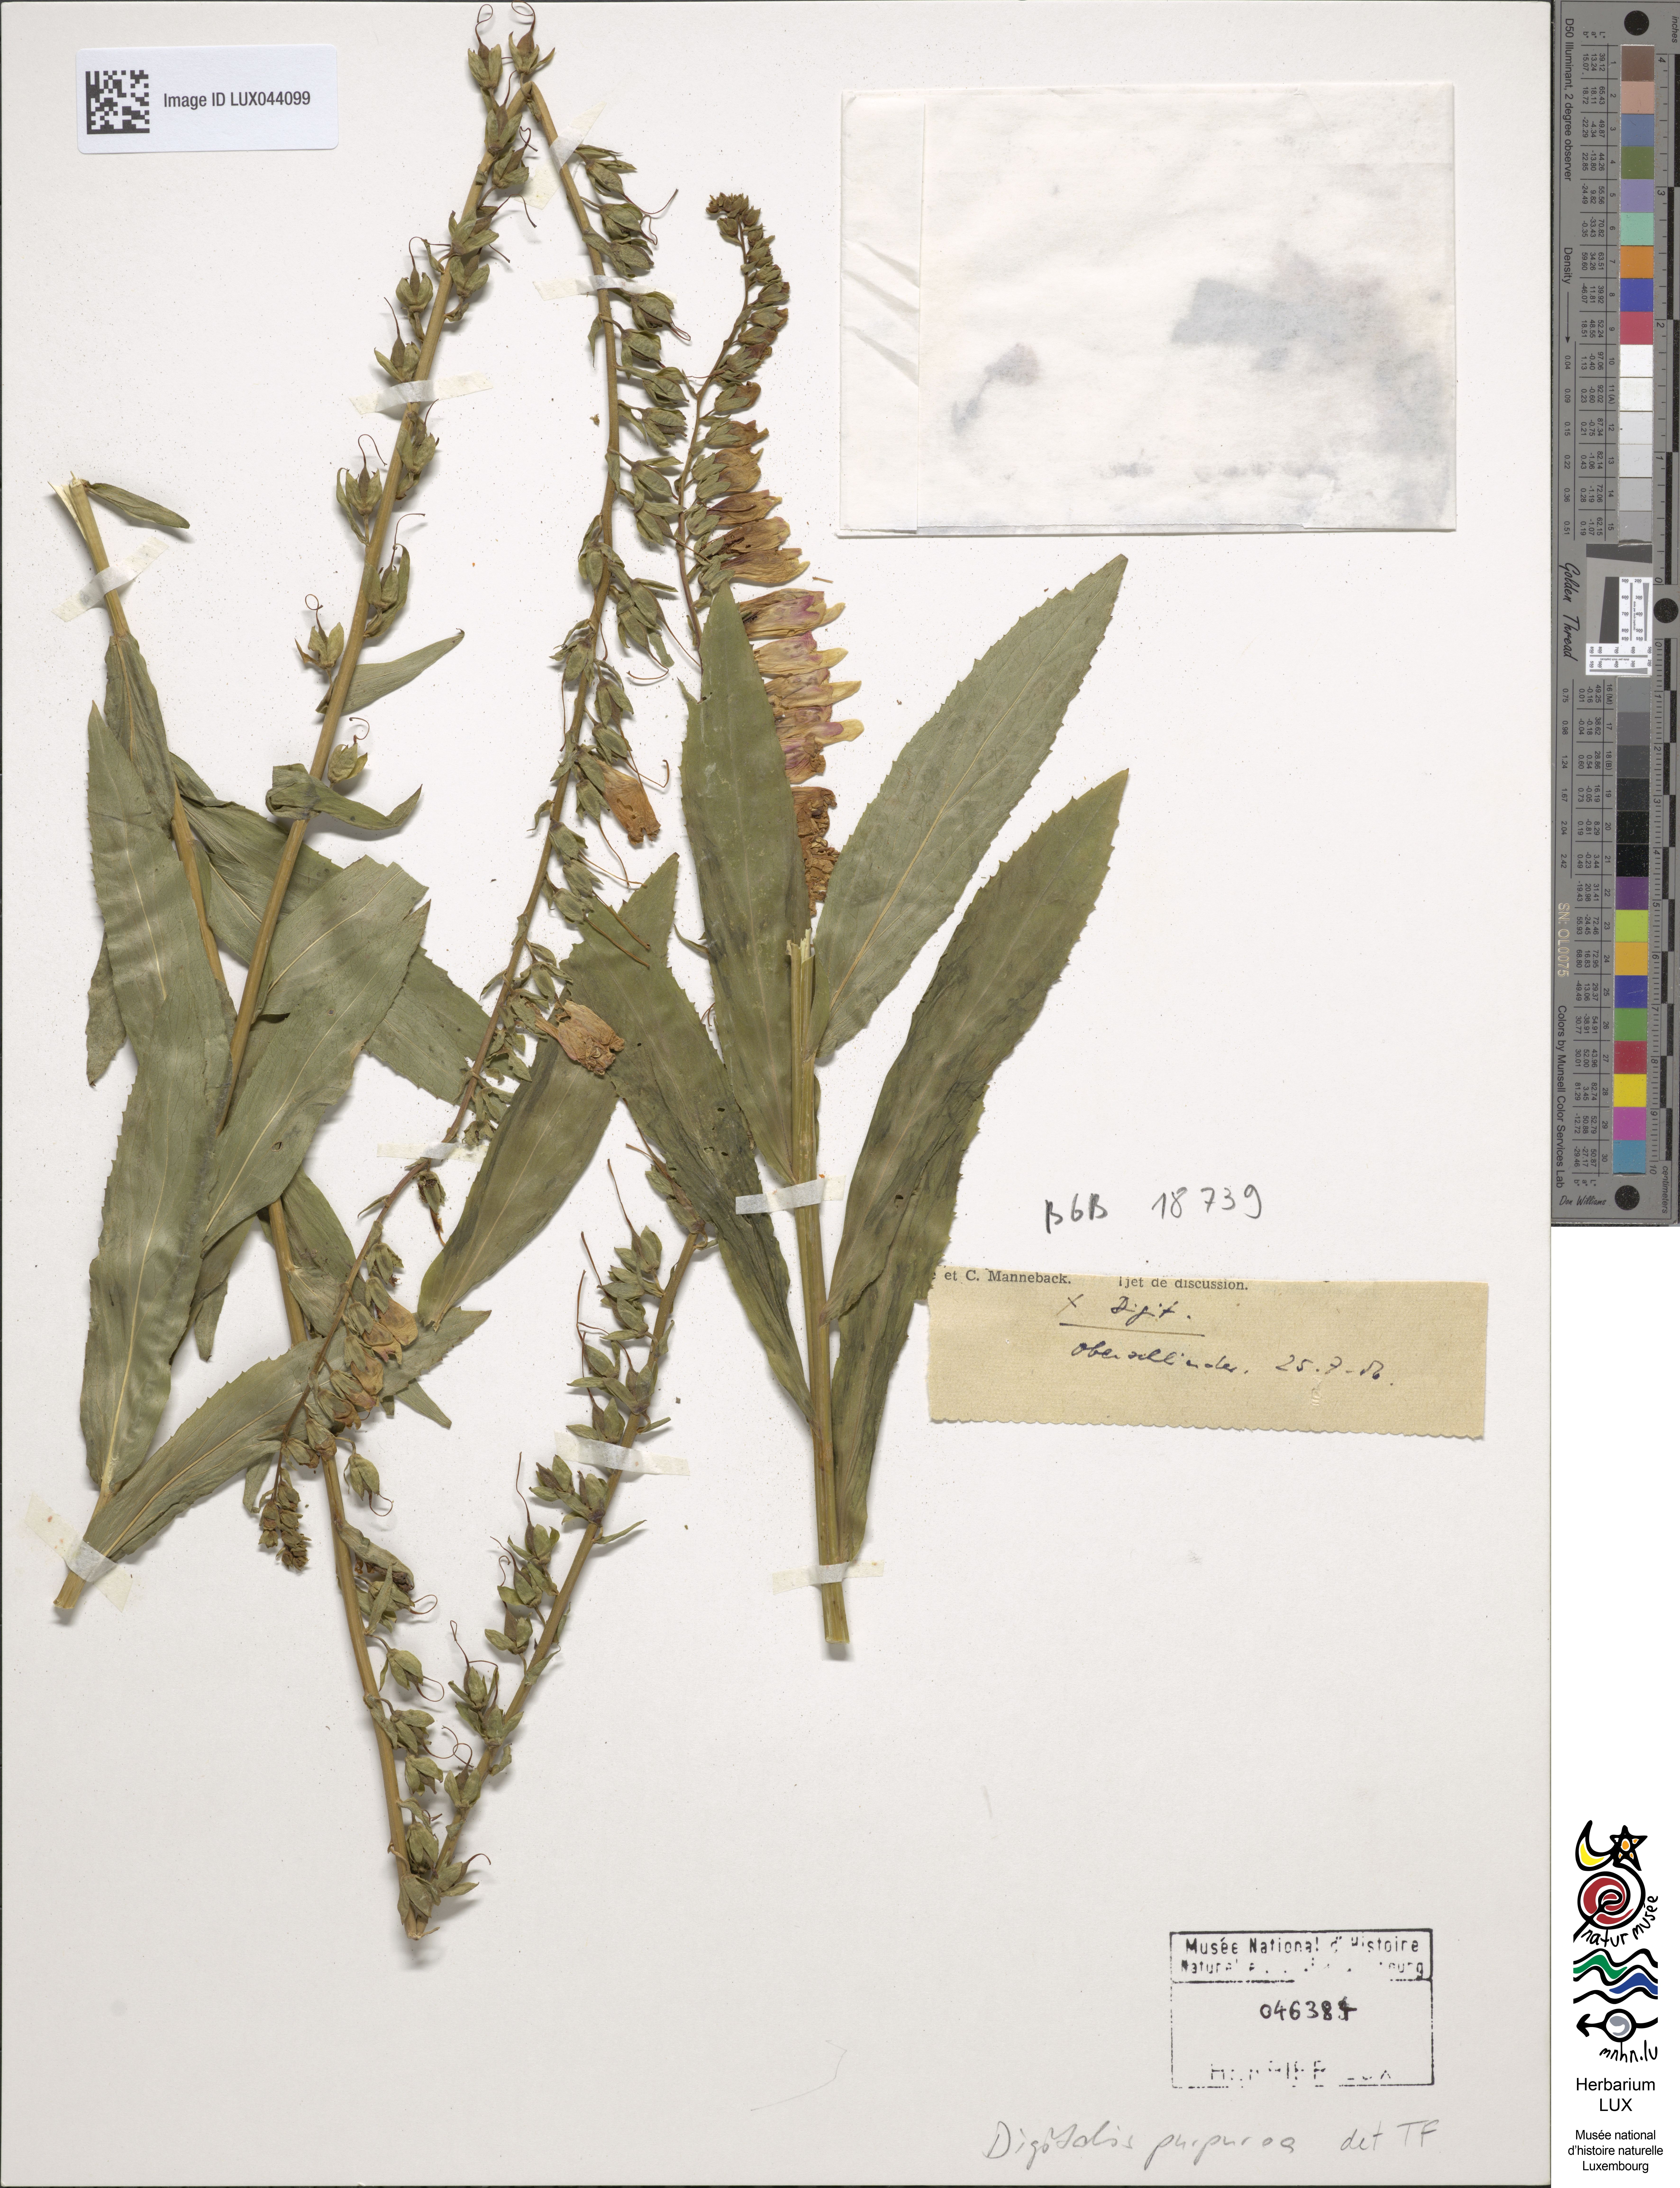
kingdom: Plantae
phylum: Tracheophyta
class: Magnoliopsida
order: Lamiales
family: Plantaginaceae
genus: Digitalis
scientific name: Digitalis purpurea
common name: Foxglove
